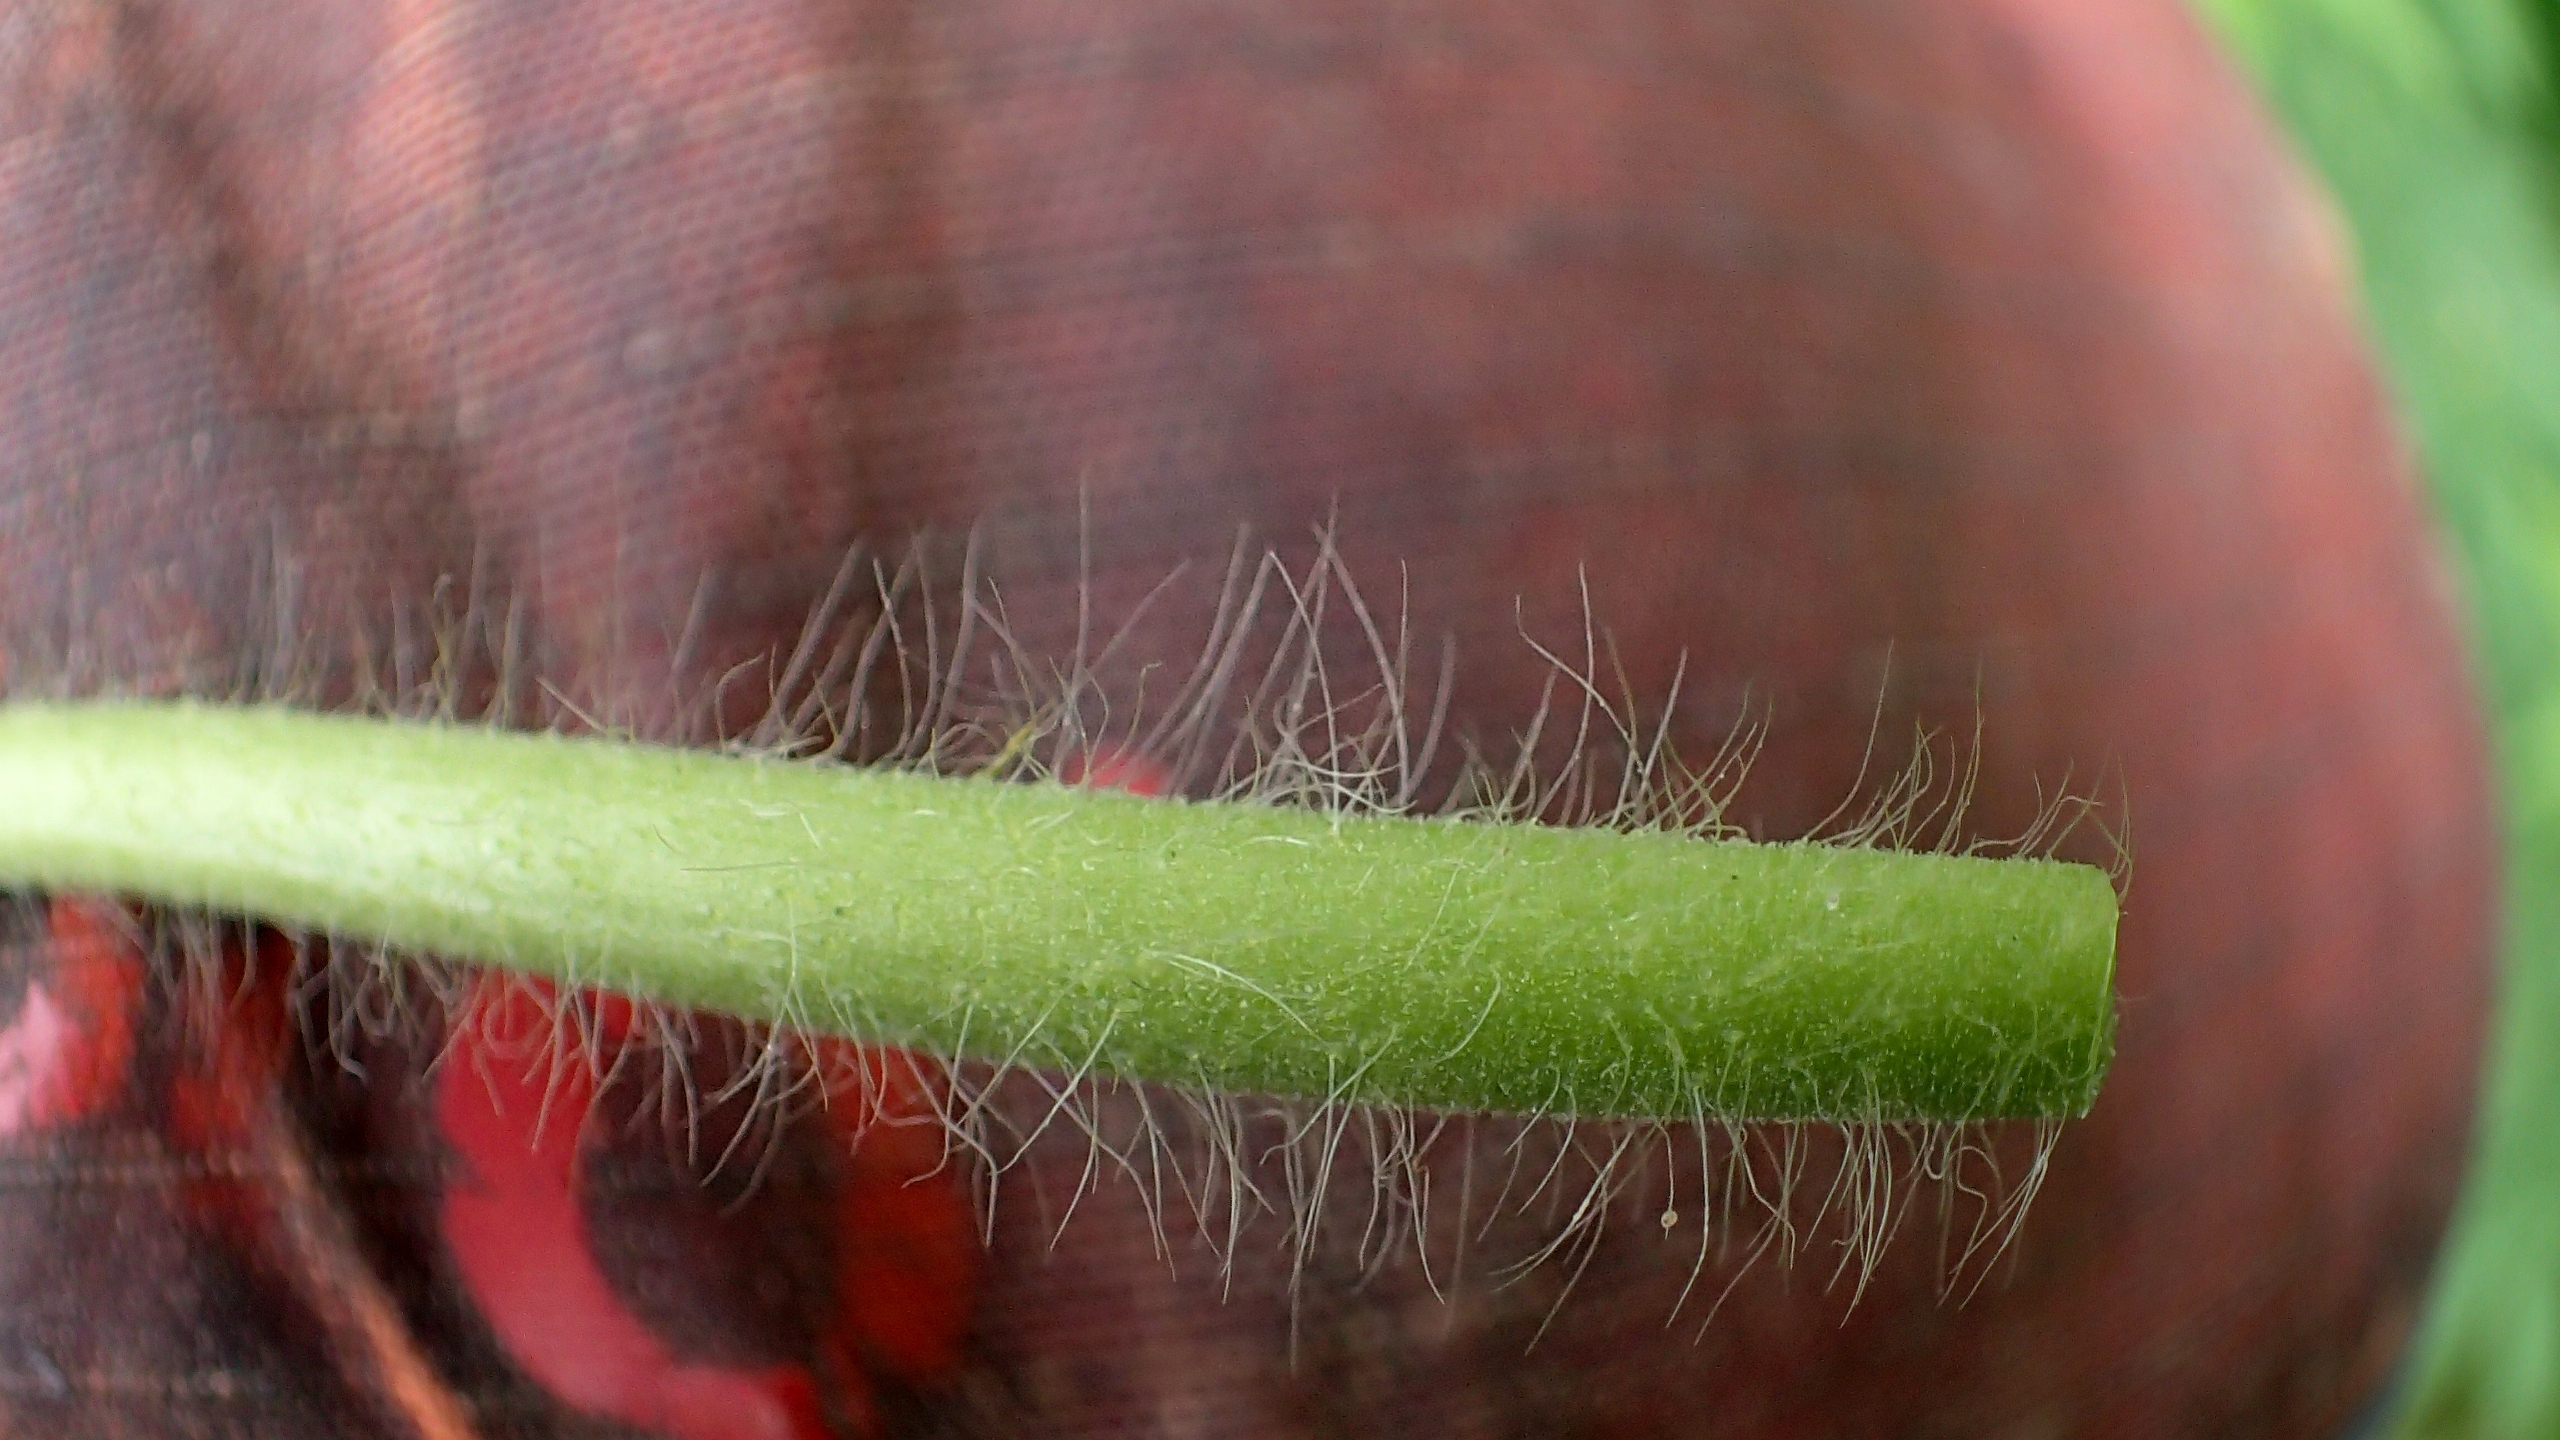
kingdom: Plantae
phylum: Tracheophyta
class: Magnoliopsida
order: Rosales
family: Rosaceae
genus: Agrimonia
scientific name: Agrimonia procera
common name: Vellugtende agermåne
